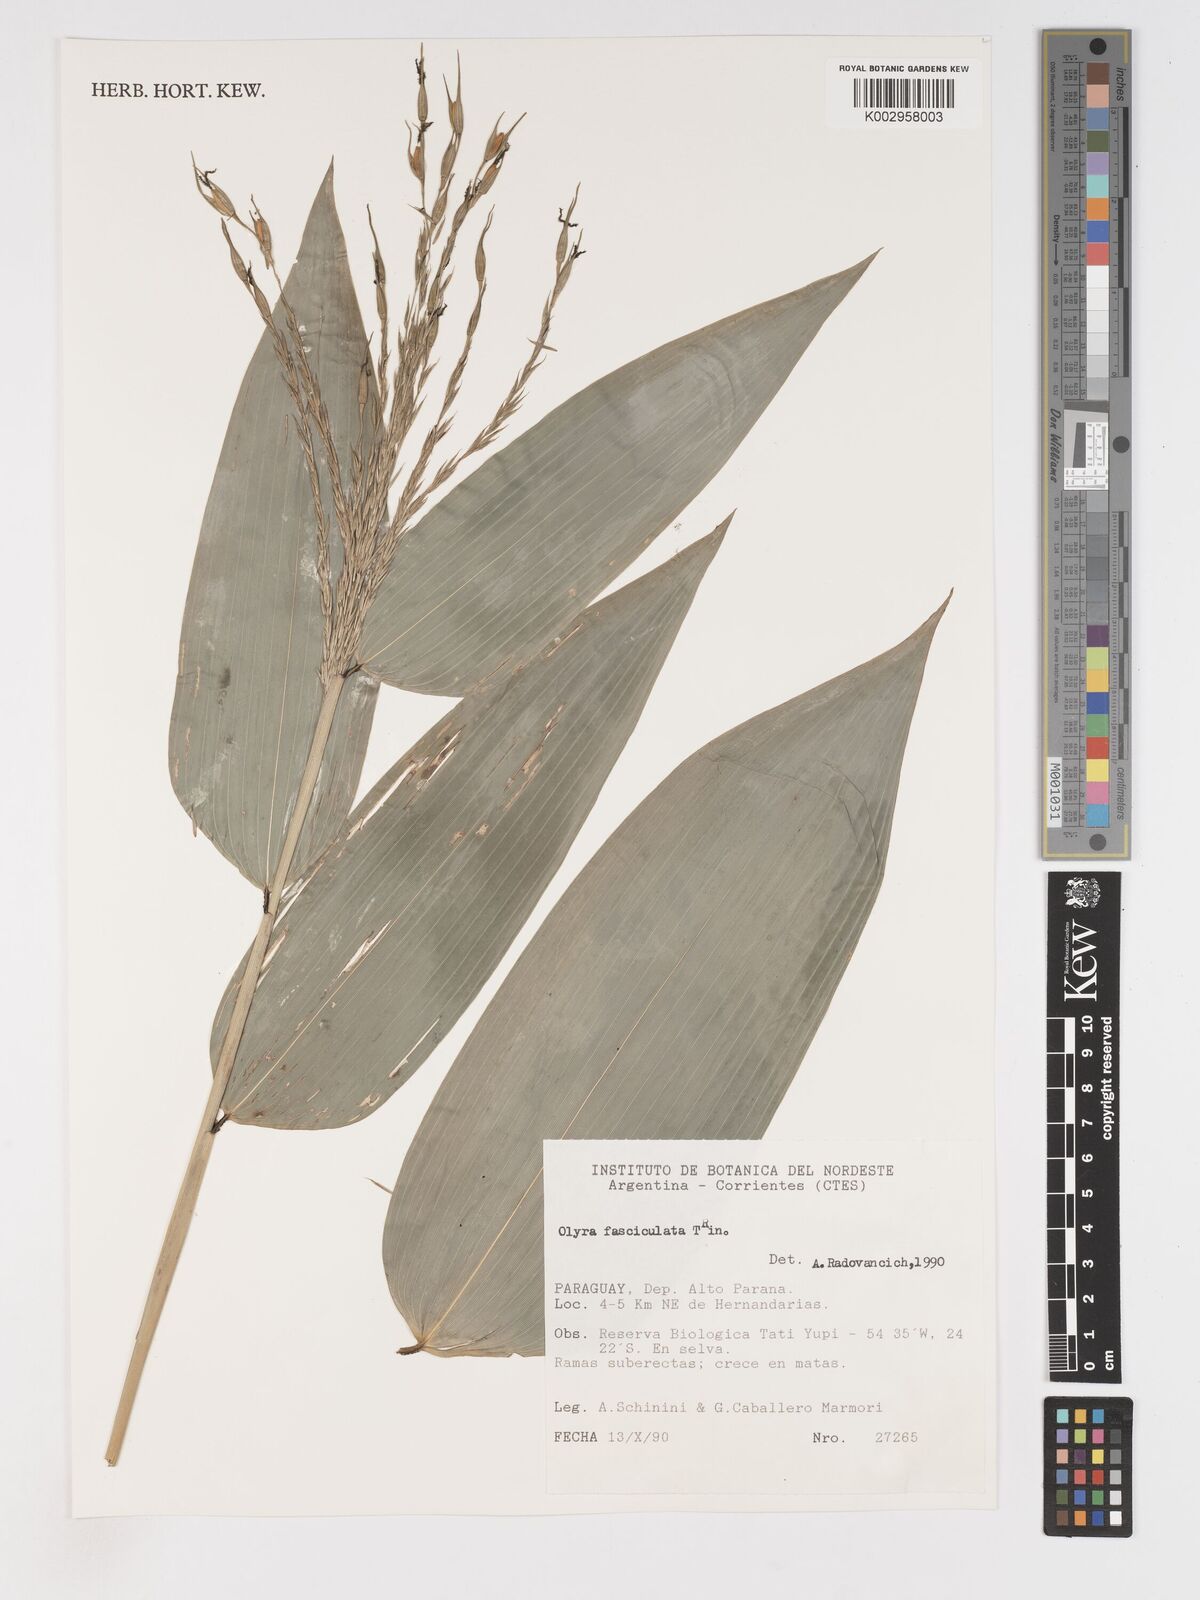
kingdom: Plantae
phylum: Tracheophyta
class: Liliopsida
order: Poales
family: Poaceae
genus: Olyra
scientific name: Olyra fasciculata
